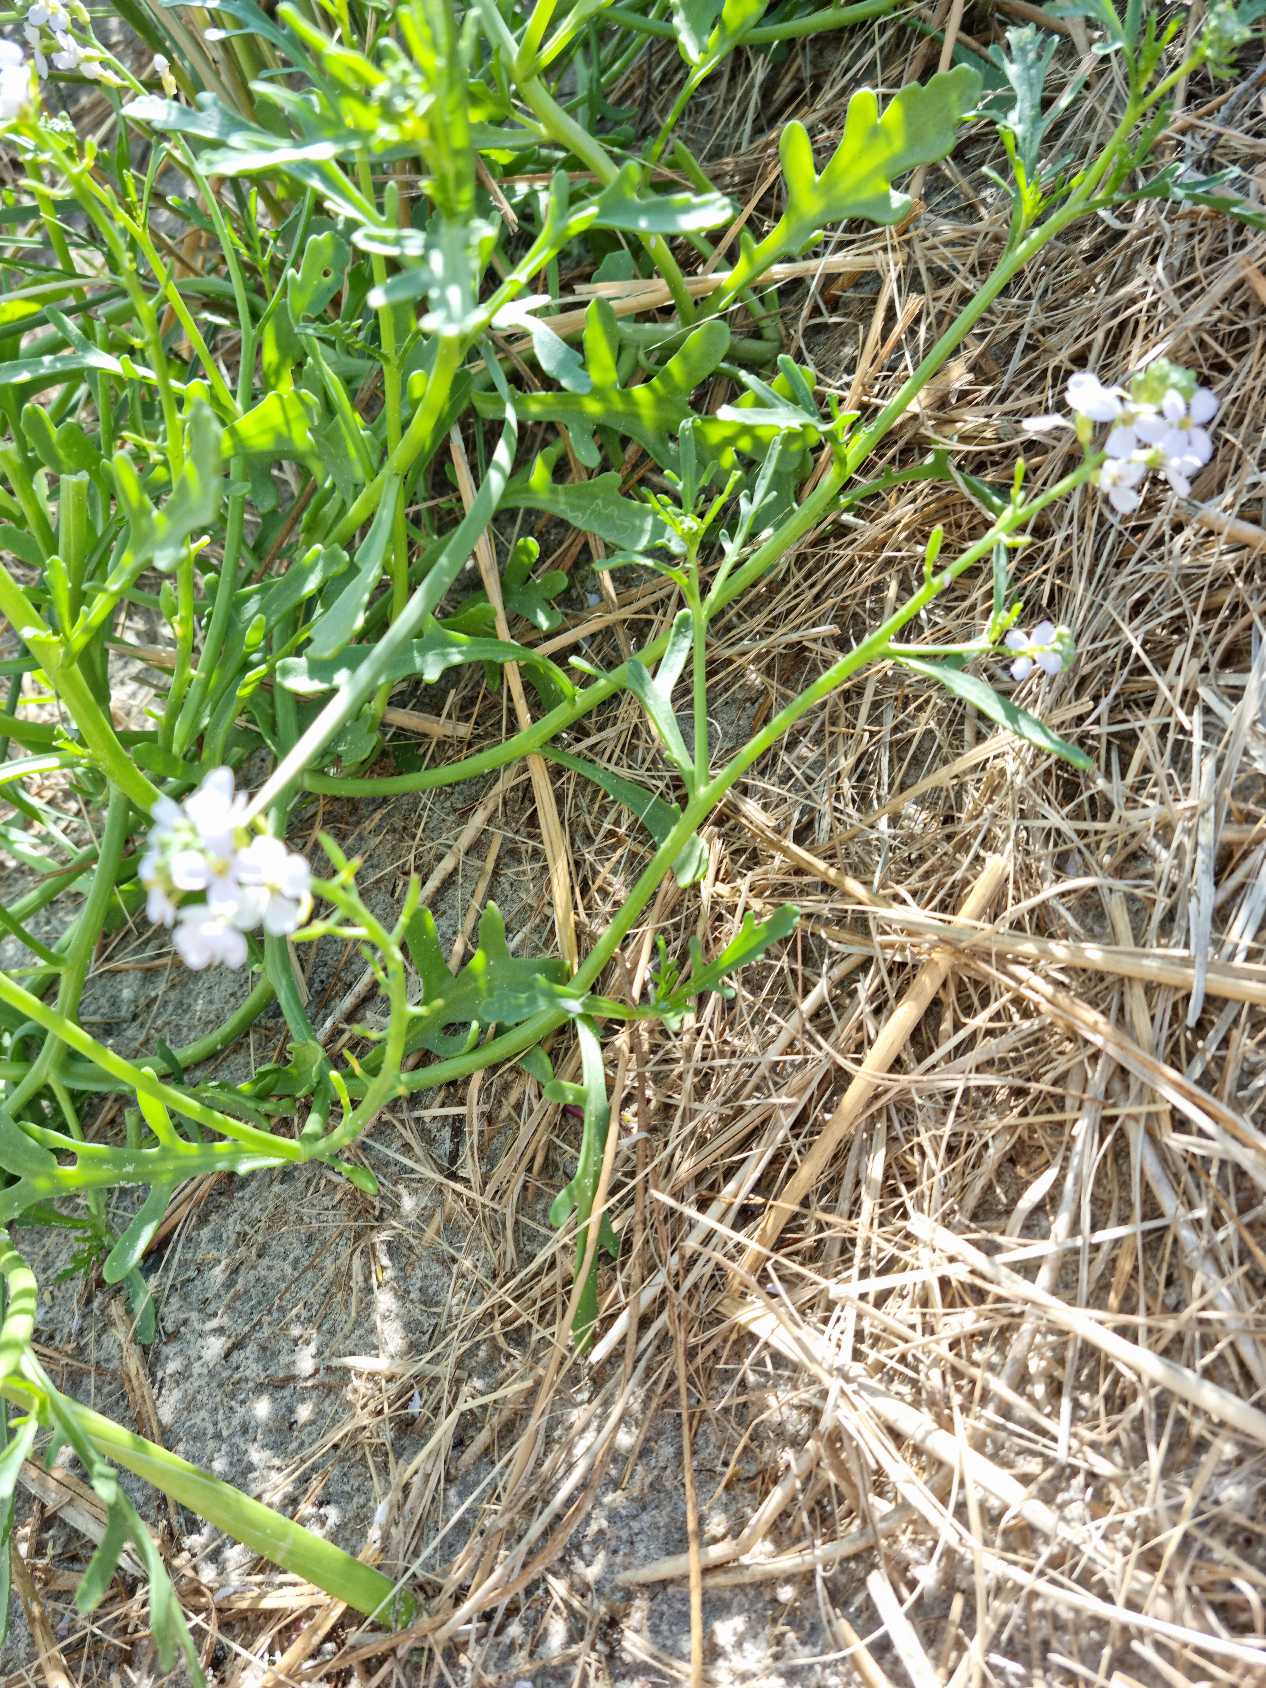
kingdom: Plantae
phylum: Tracheophyta
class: Magnoliopsida
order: Brassicales
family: Brassicaceae
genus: Cakile
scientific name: Cakile maritima
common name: Vesterhavs-strandsennep
